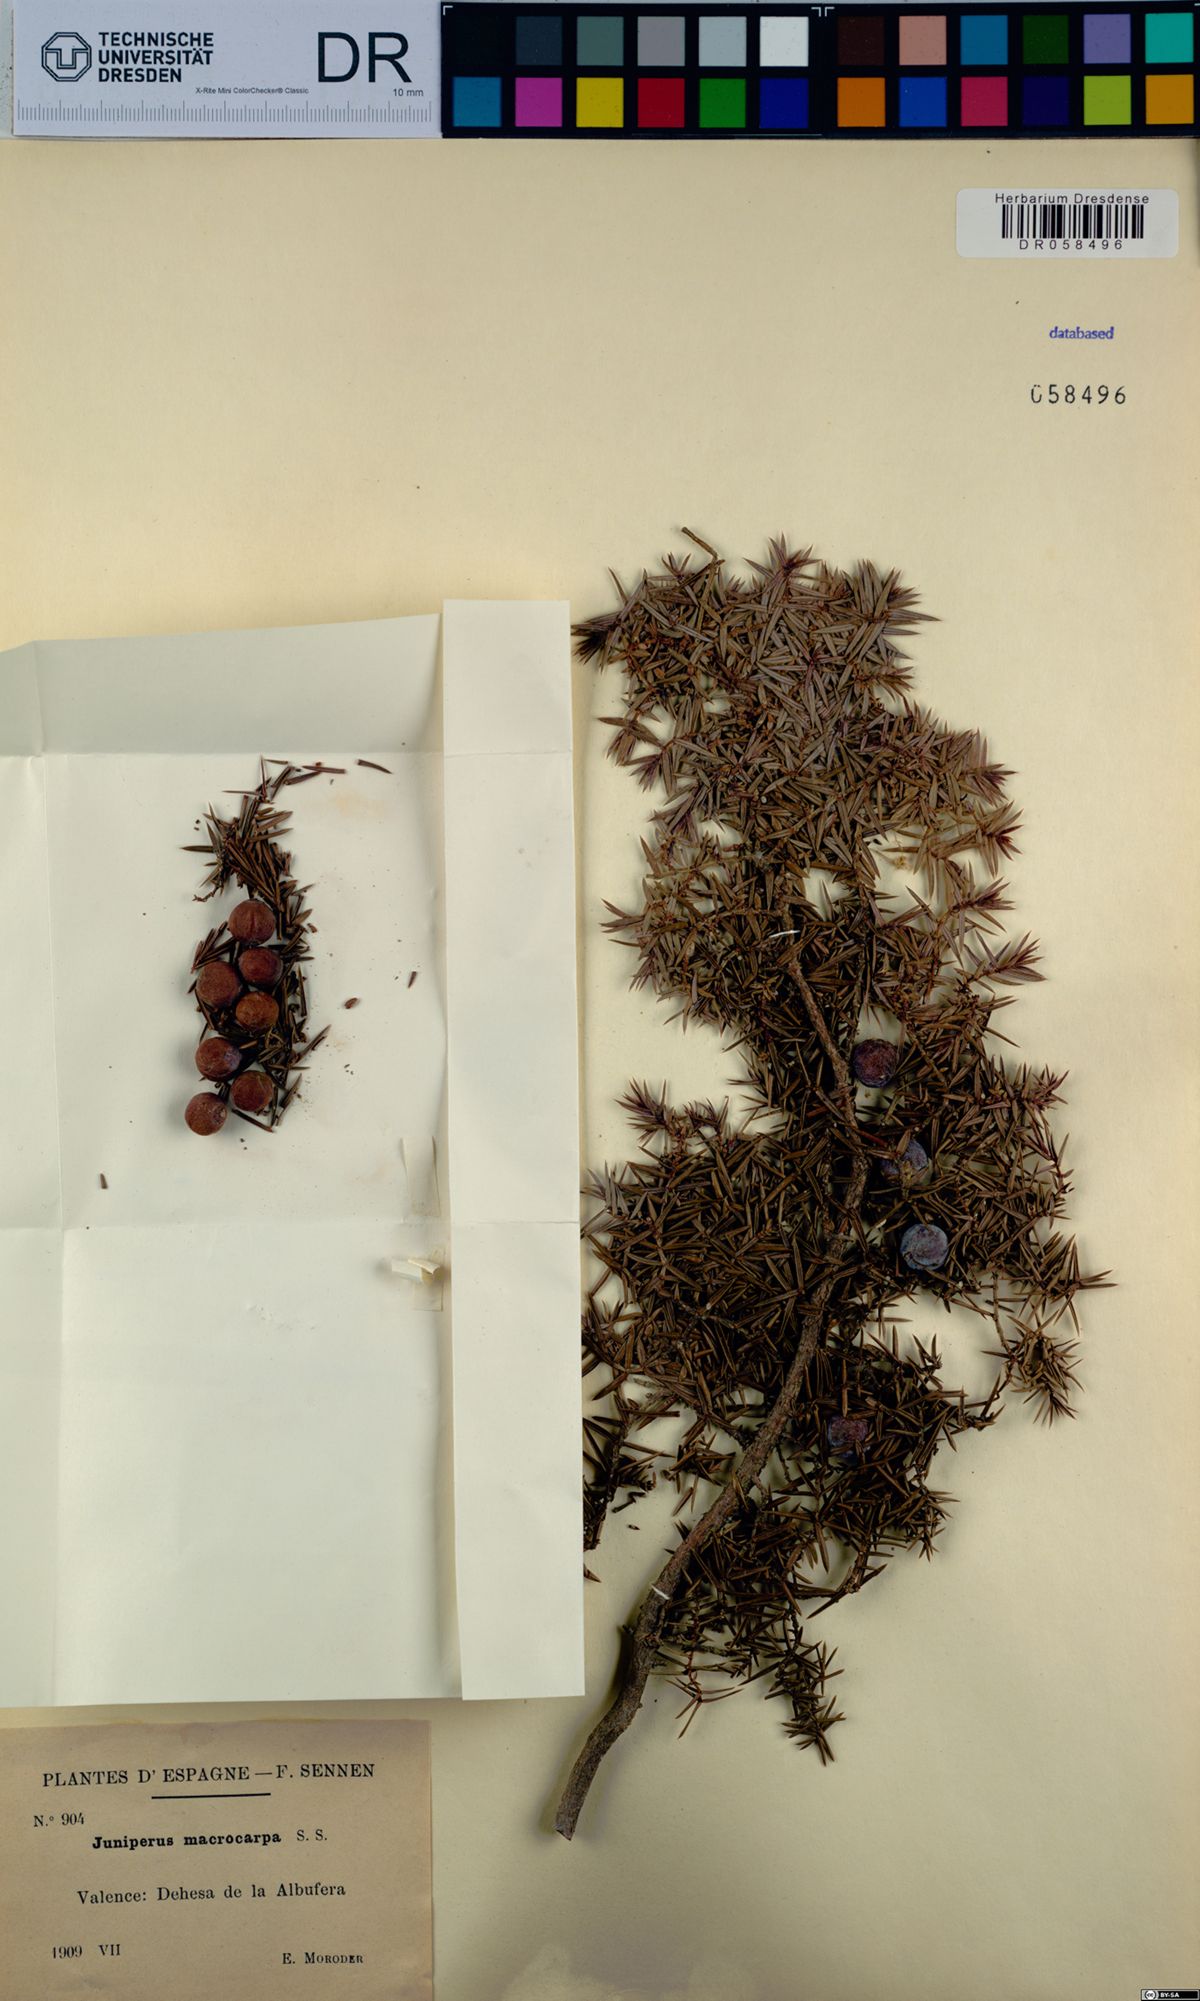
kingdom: Plantae
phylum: Tracheophyta
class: Pinopsida
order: Pinales
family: Cupressaceae
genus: Juniperus
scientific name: Juniperus oxycedrus
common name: Prickly juniper
